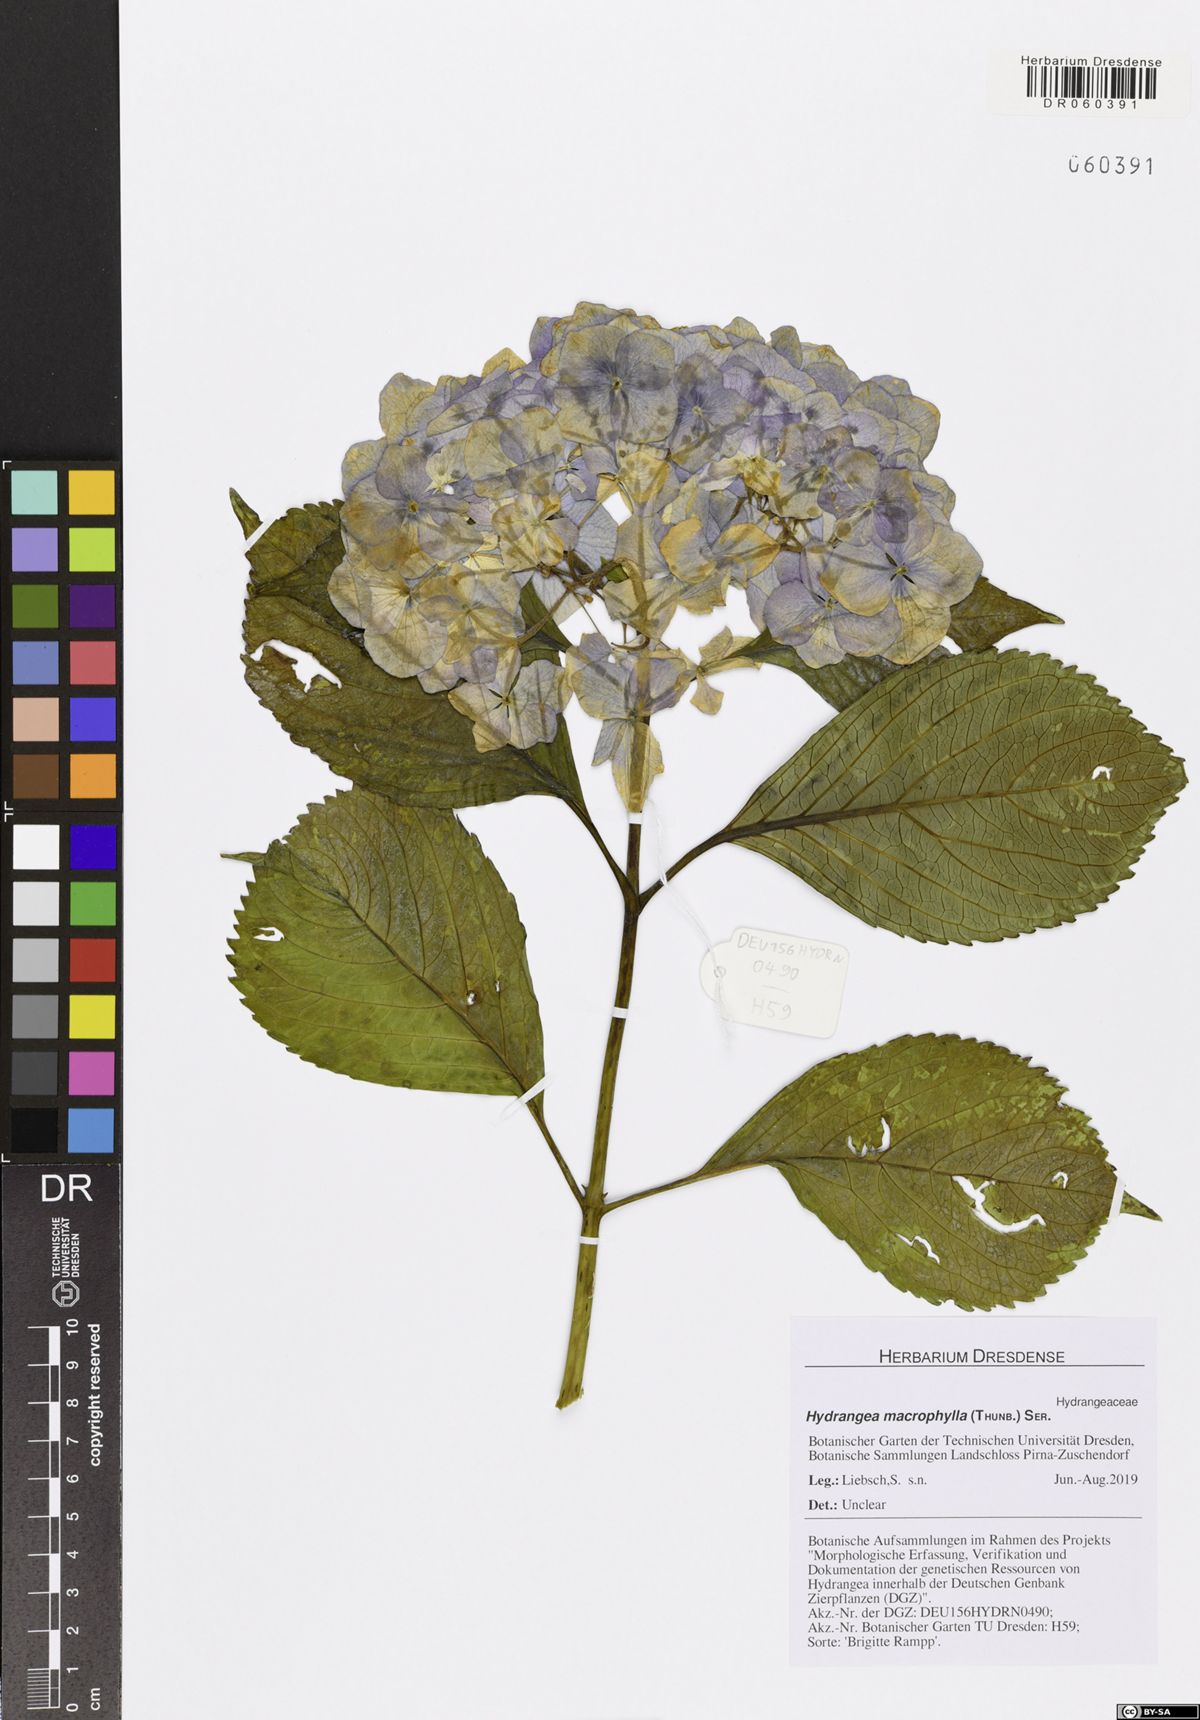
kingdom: Plantae
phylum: Tracheophyta
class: Magnoliopsida
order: Cornales
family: Hydrangeaceae
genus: Hydrangea
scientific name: Hydrangea macrophylla
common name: Hydrangea
